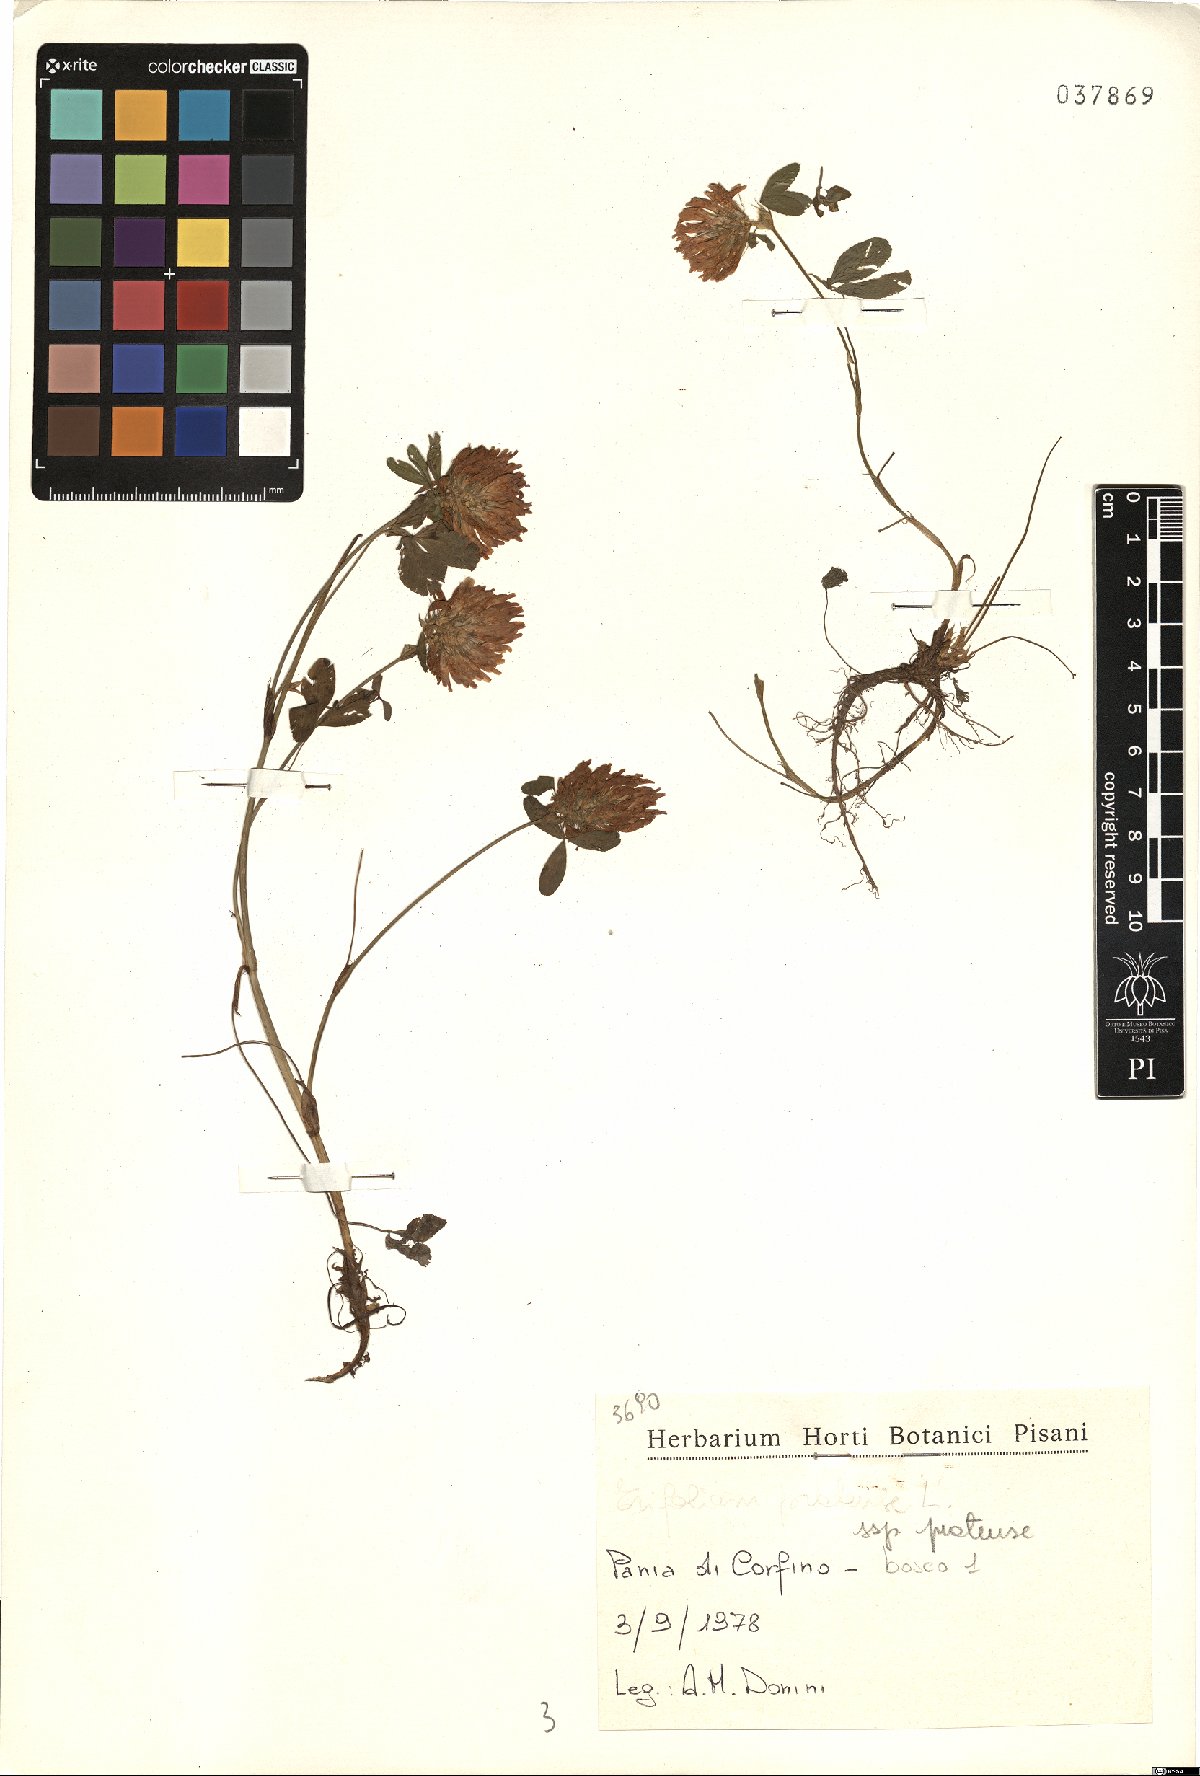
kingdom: Plantae
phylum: Tracheophyta
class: Magnoliopsida
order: Fabales
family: Fabaceae
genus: Trifolium
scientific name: Trifolium pratense
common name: Red clover
